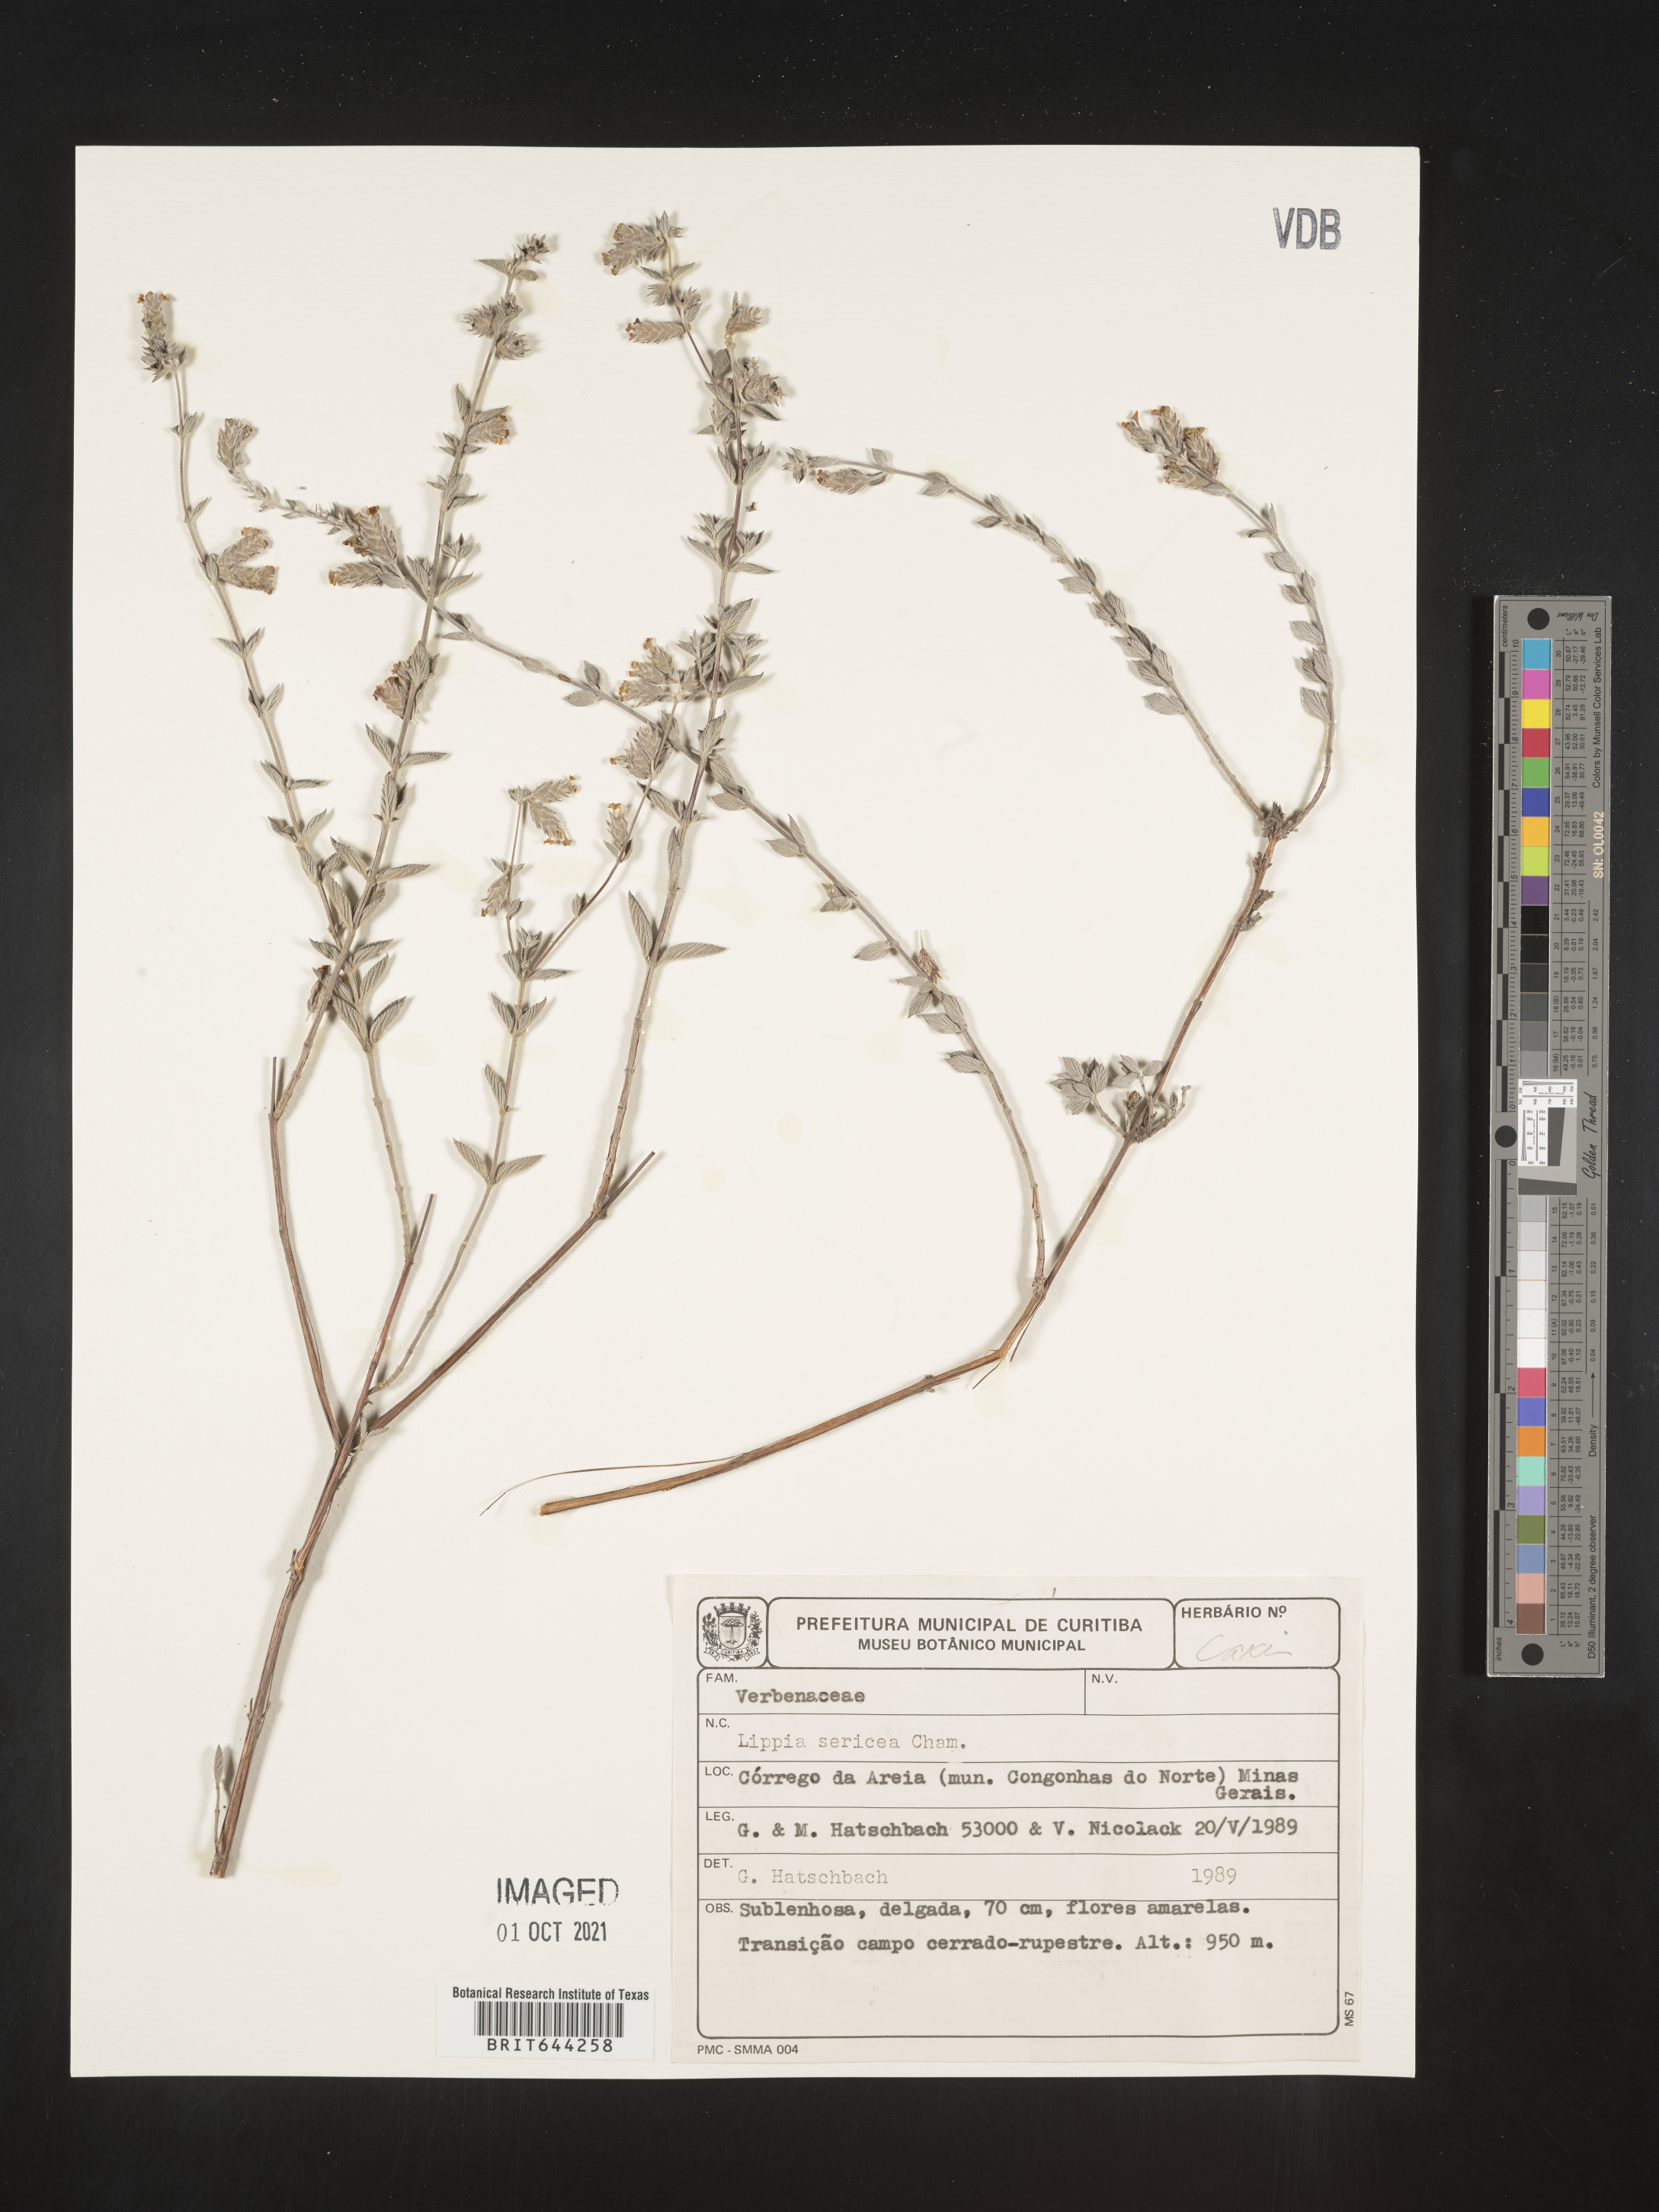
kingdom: Plantae
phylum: Tracheophyta
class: Magnoliopsida
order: Lamiales
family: Verbenaceae
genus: Lippia
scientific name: Lippia
